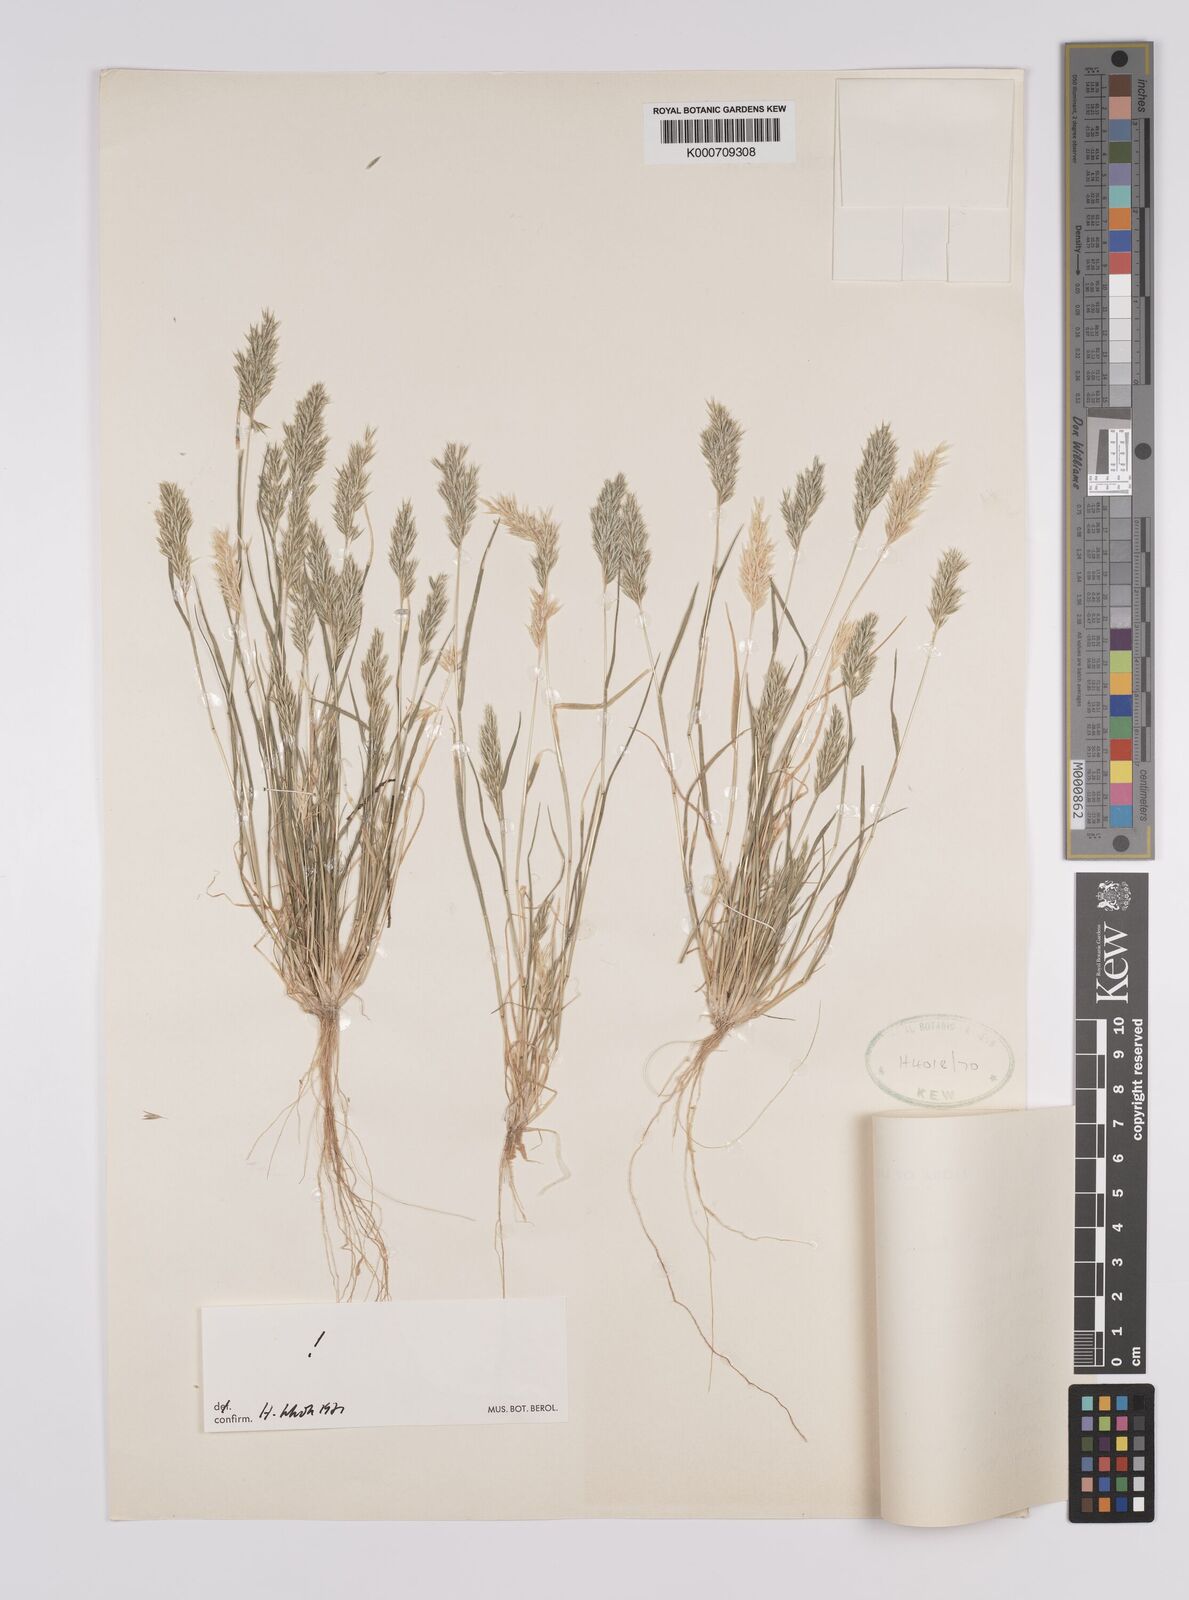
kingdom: Plantae
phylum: Tracheophyta
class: Liliopsida
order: Poales
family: Poaceae
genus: Schismus
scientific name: Schismus barbatus
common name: Kelch-grass
